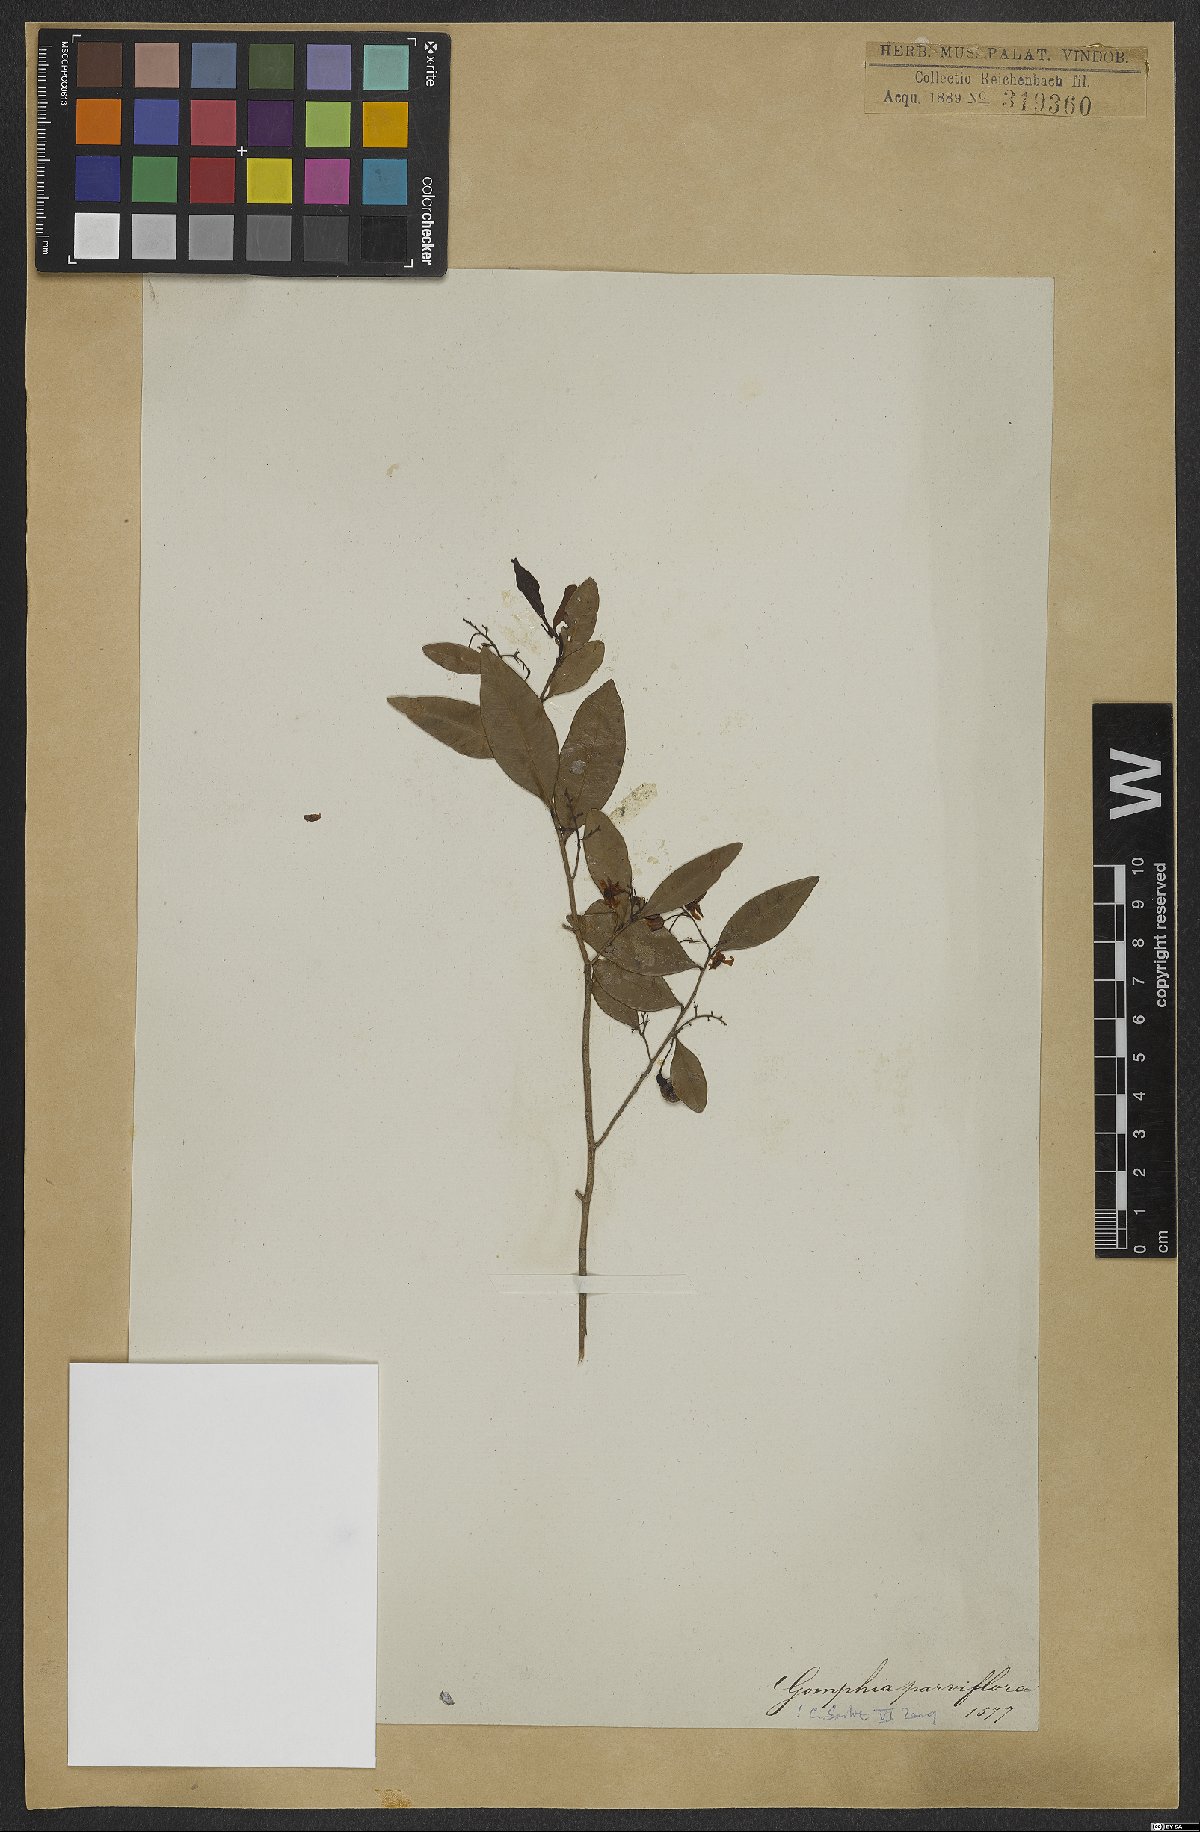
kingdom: Plantae
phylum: Tracheophyta
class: Magnoliopsida
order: Malpighiales
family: Ochnaceae
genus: Ouratea
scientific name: Ouratea parviflora
